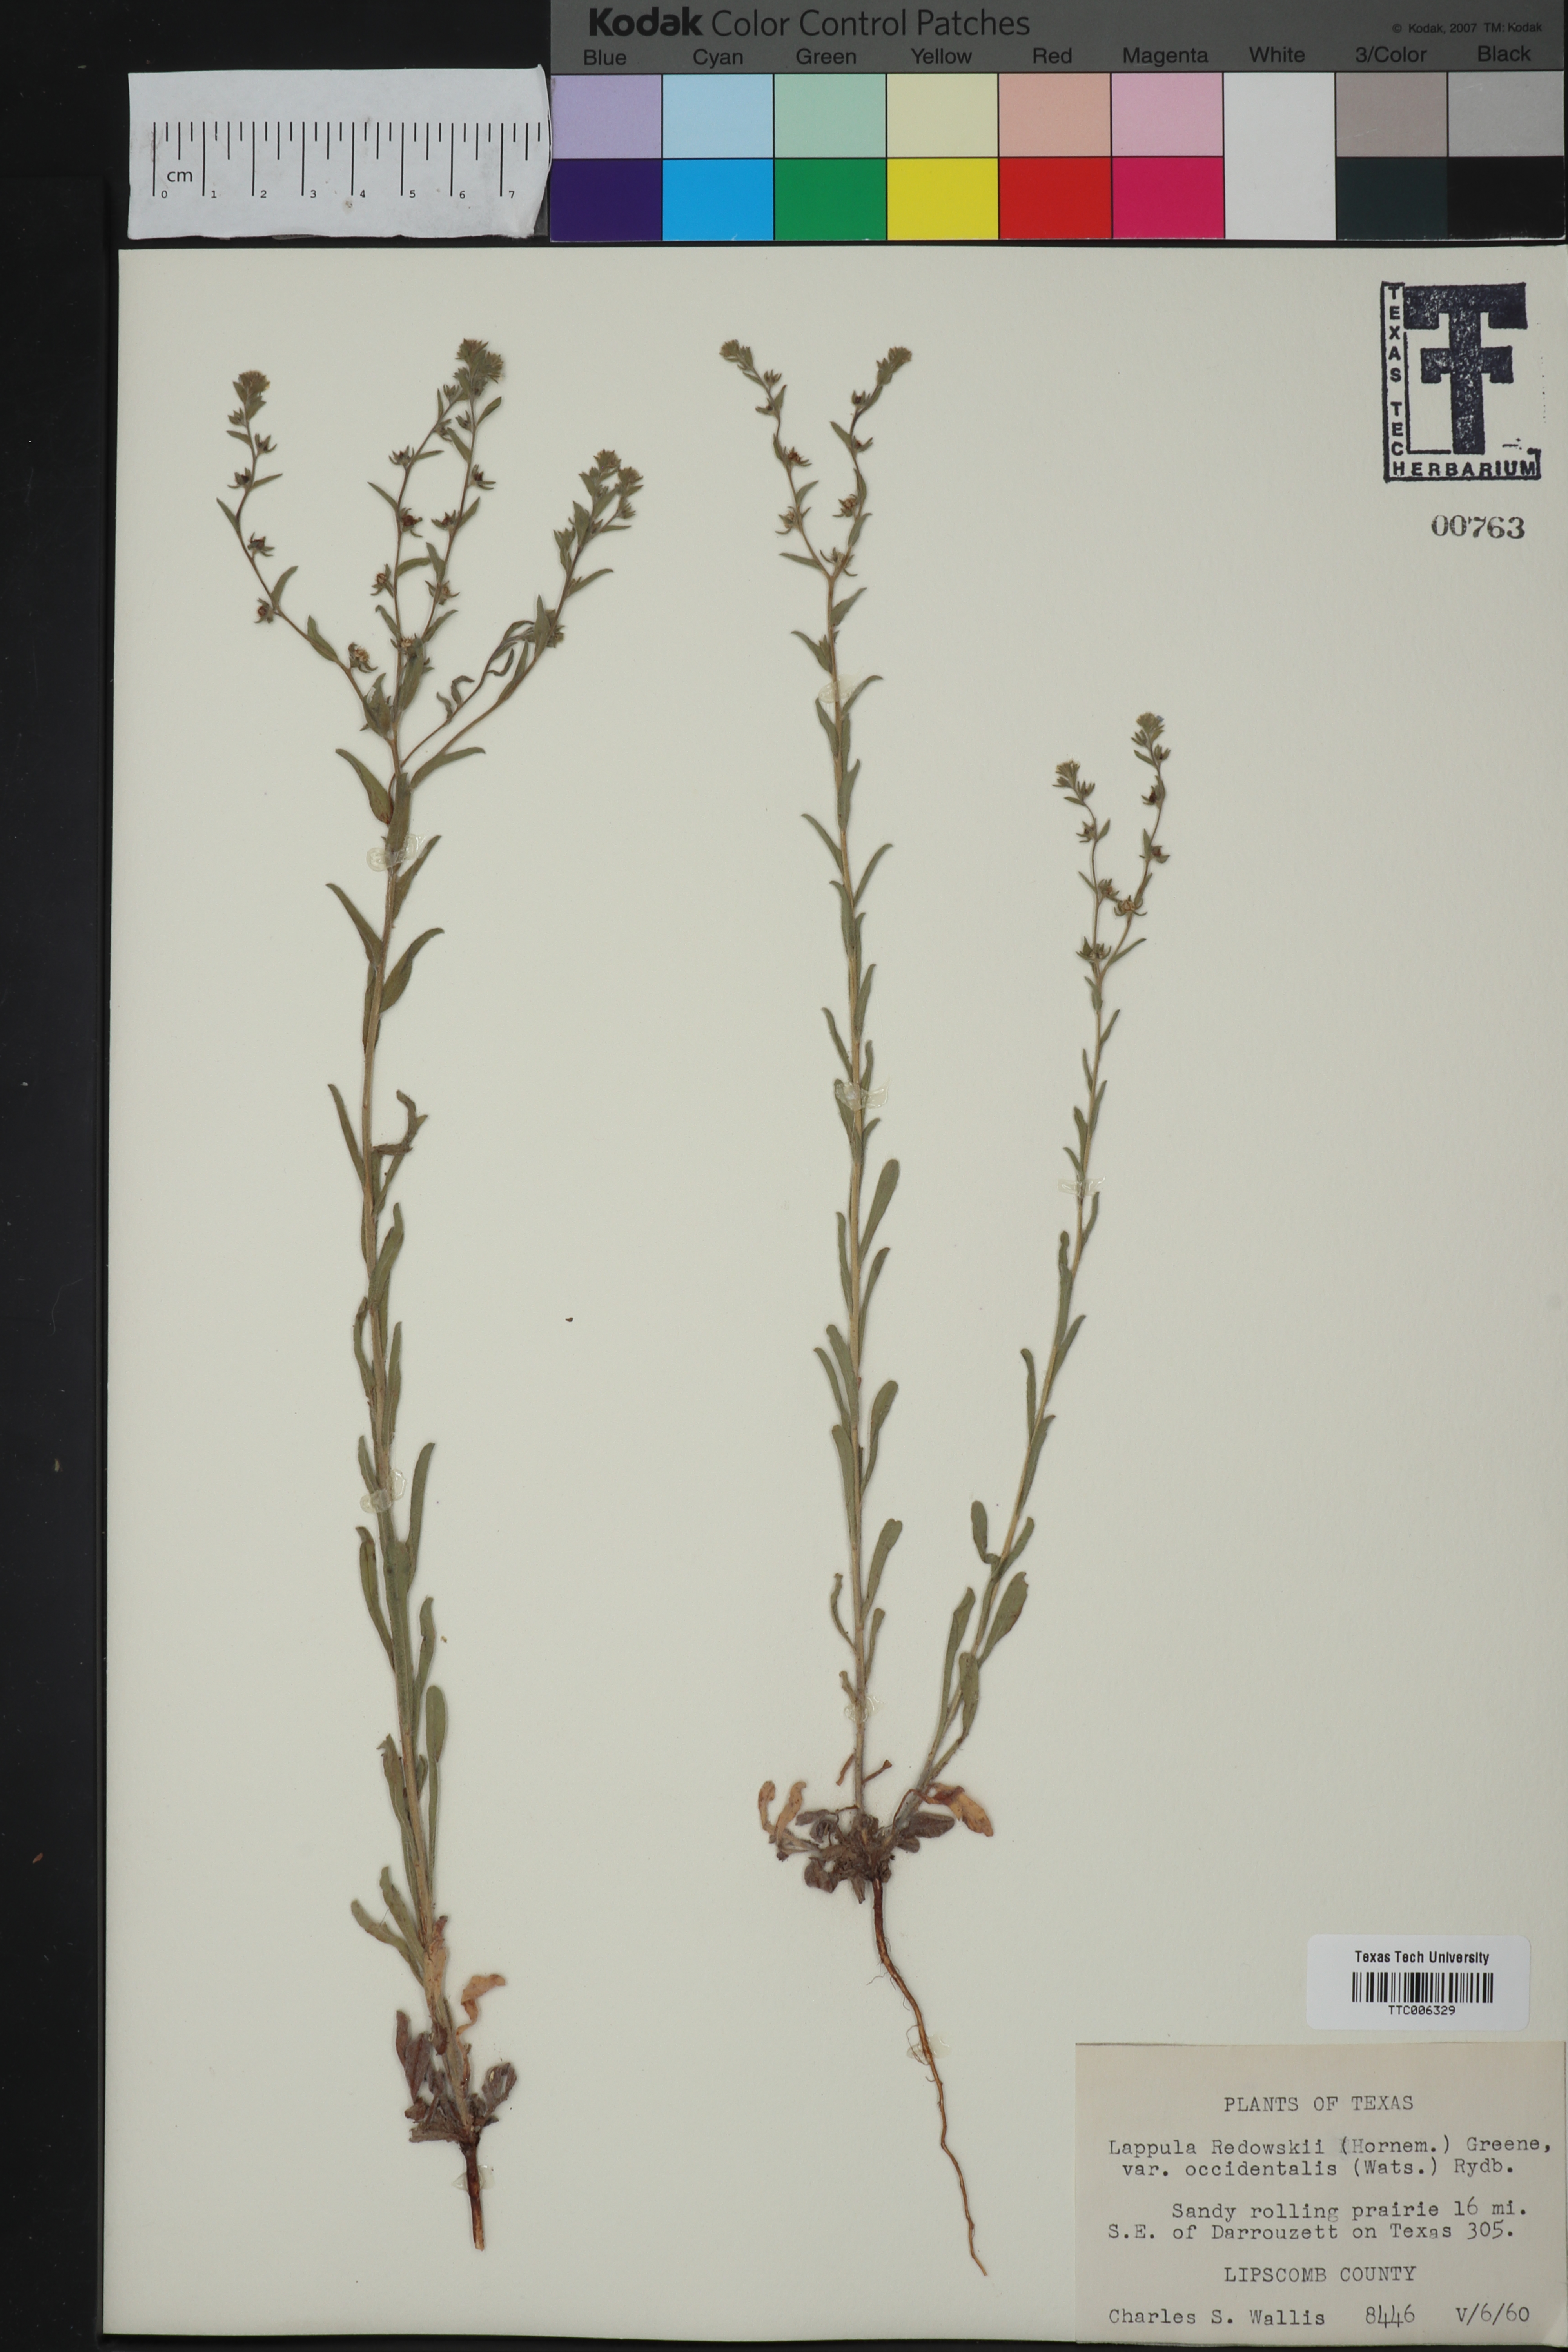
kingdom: Plantae
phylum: Tracheophyta
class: Magnoliopsida
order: Boraginales
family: Boraginaceae
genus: Lappula
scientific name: Lappula occidentalis
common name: Western stickseed
